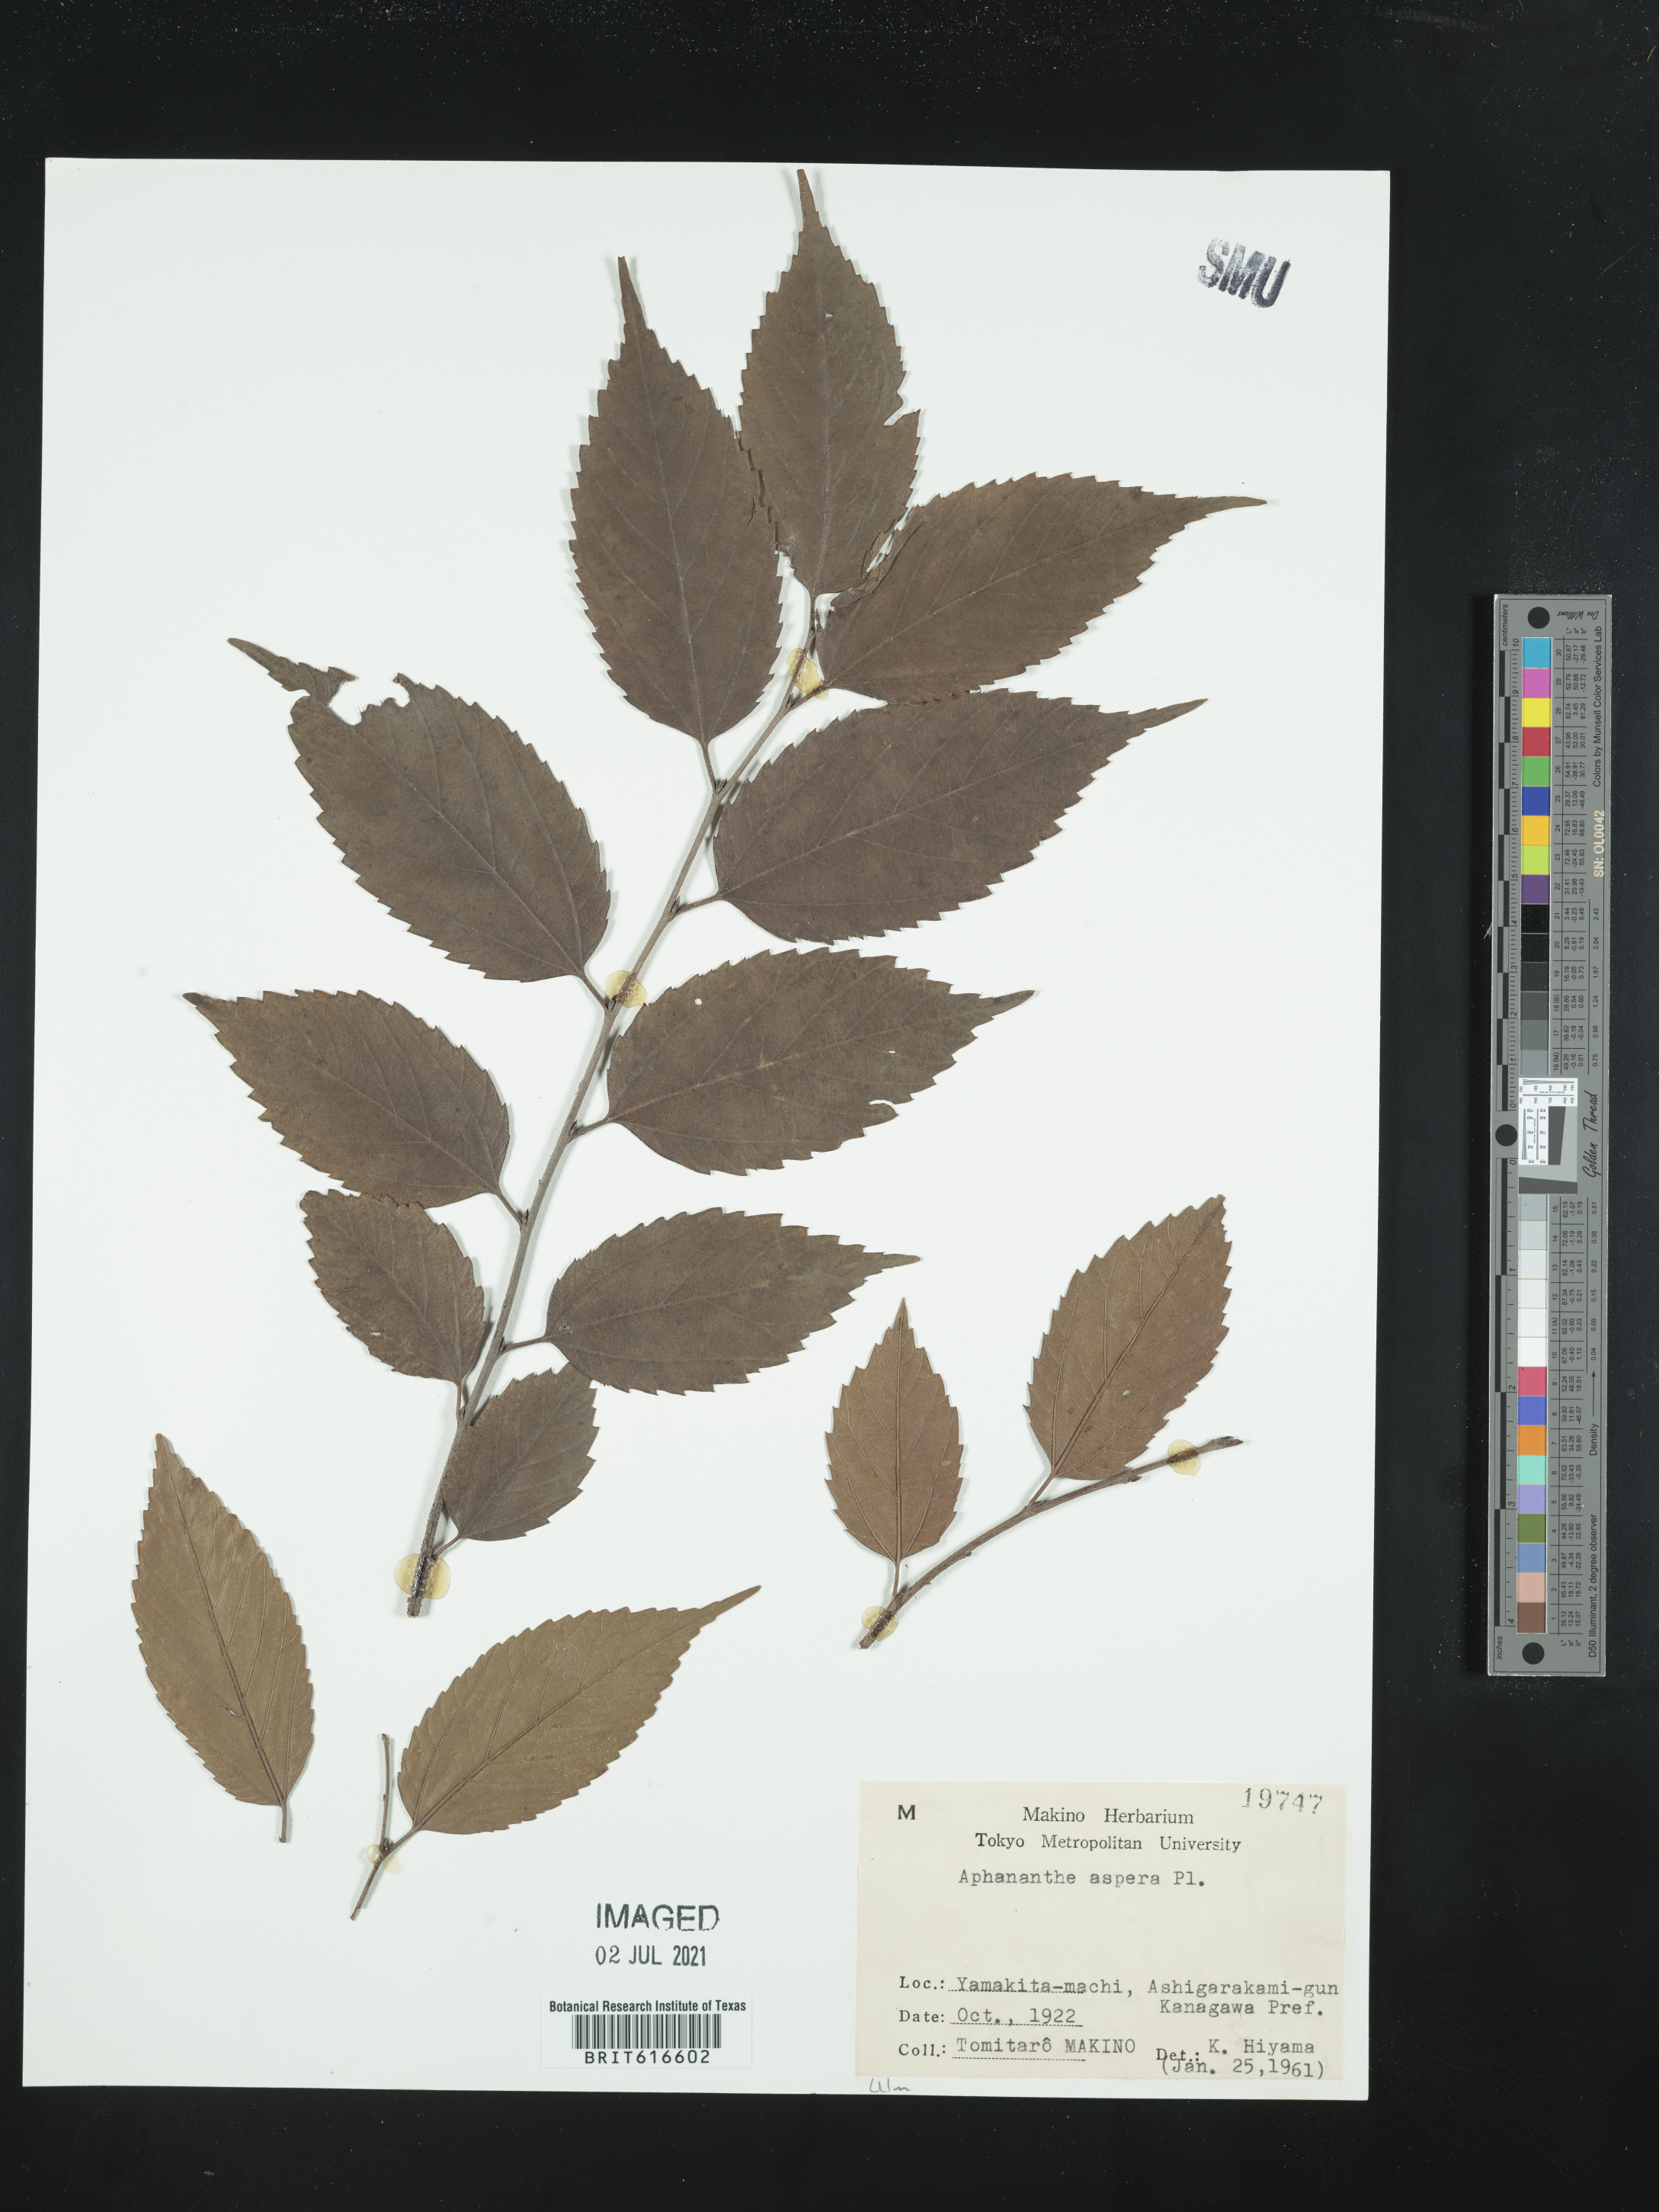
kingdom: Plantae
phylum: Tracheophyta
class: Magnoliopsida
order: Rosales
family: Cannabaceae
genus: Aphananthe
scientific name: Aphananthe aspera
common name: Mukutree
